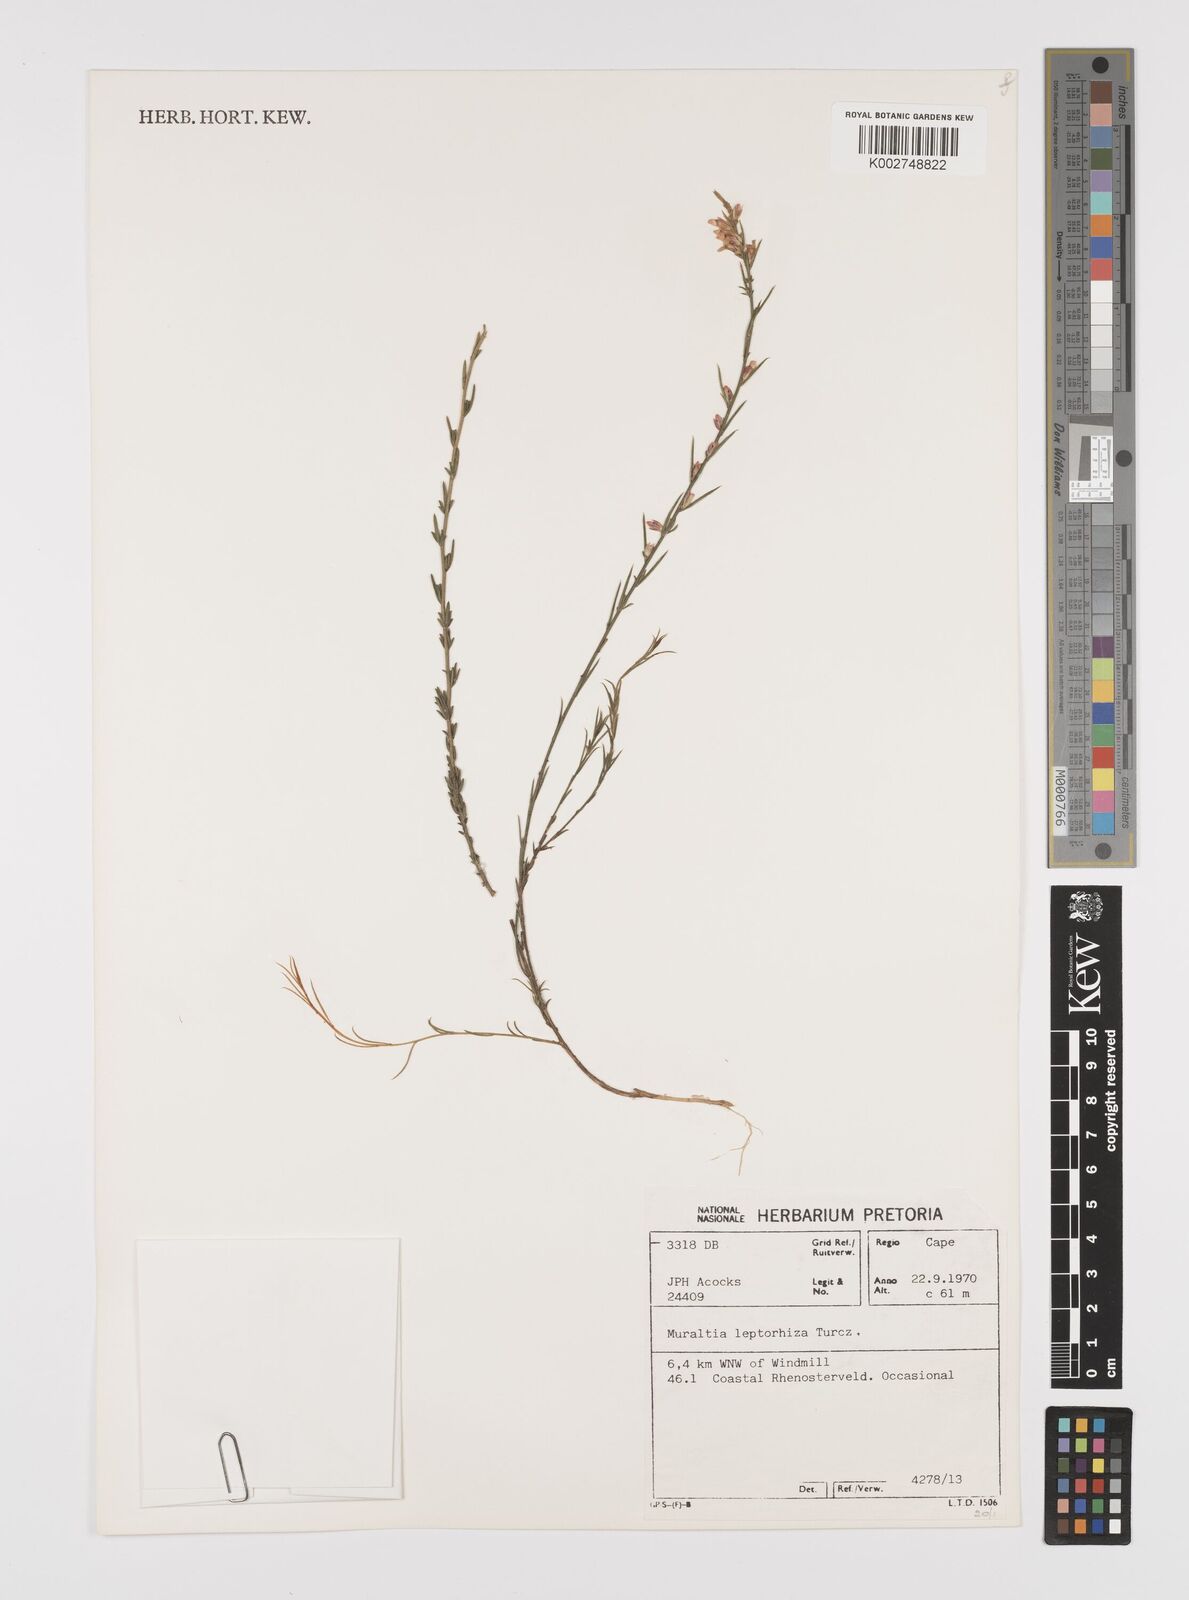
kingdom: Plantae
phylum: Tracheophyta
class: Magnoliopsida
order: Fabales
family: Polygalaceae
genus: Muraltia
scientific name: Muraltia leptorhiza
